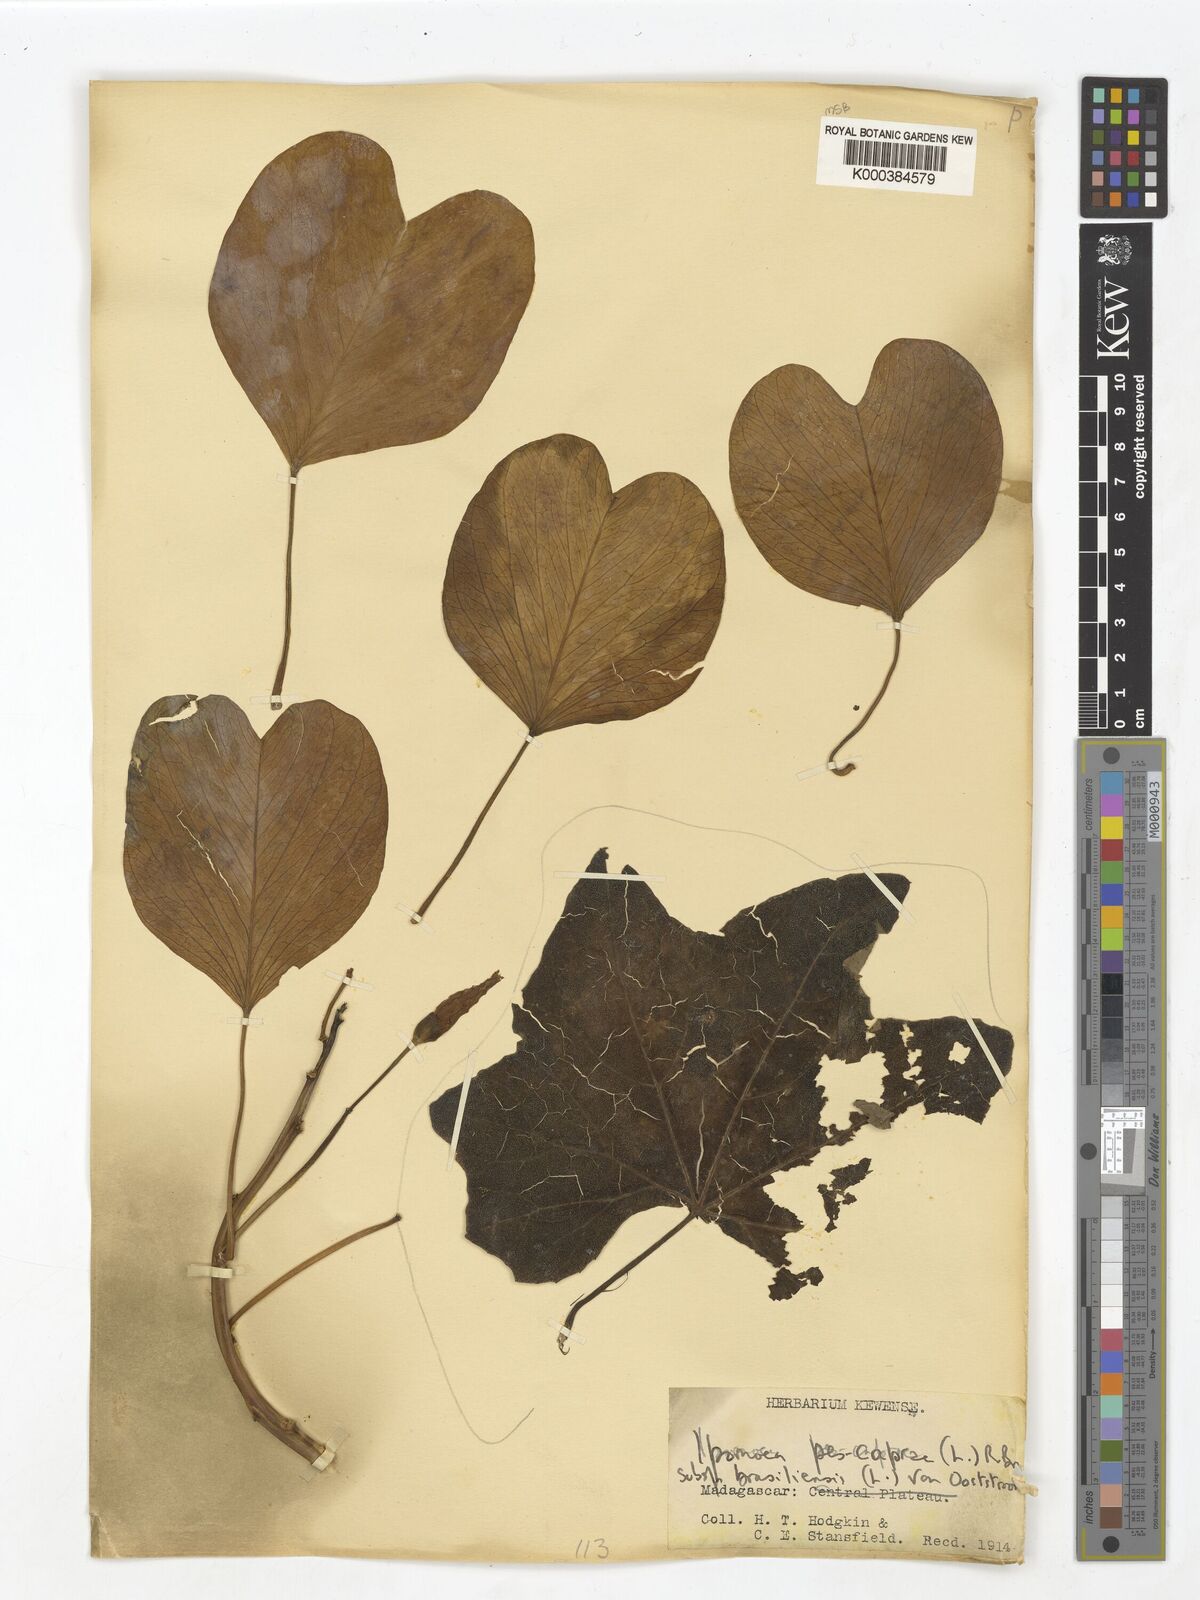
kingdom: Plantae
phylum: Tracheophyta
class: Magnoliopsida
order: Solanales
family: Convolvulaceae
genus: Ipomoea
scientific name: Ipomoea pes-caprae
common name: Beach morning glory
